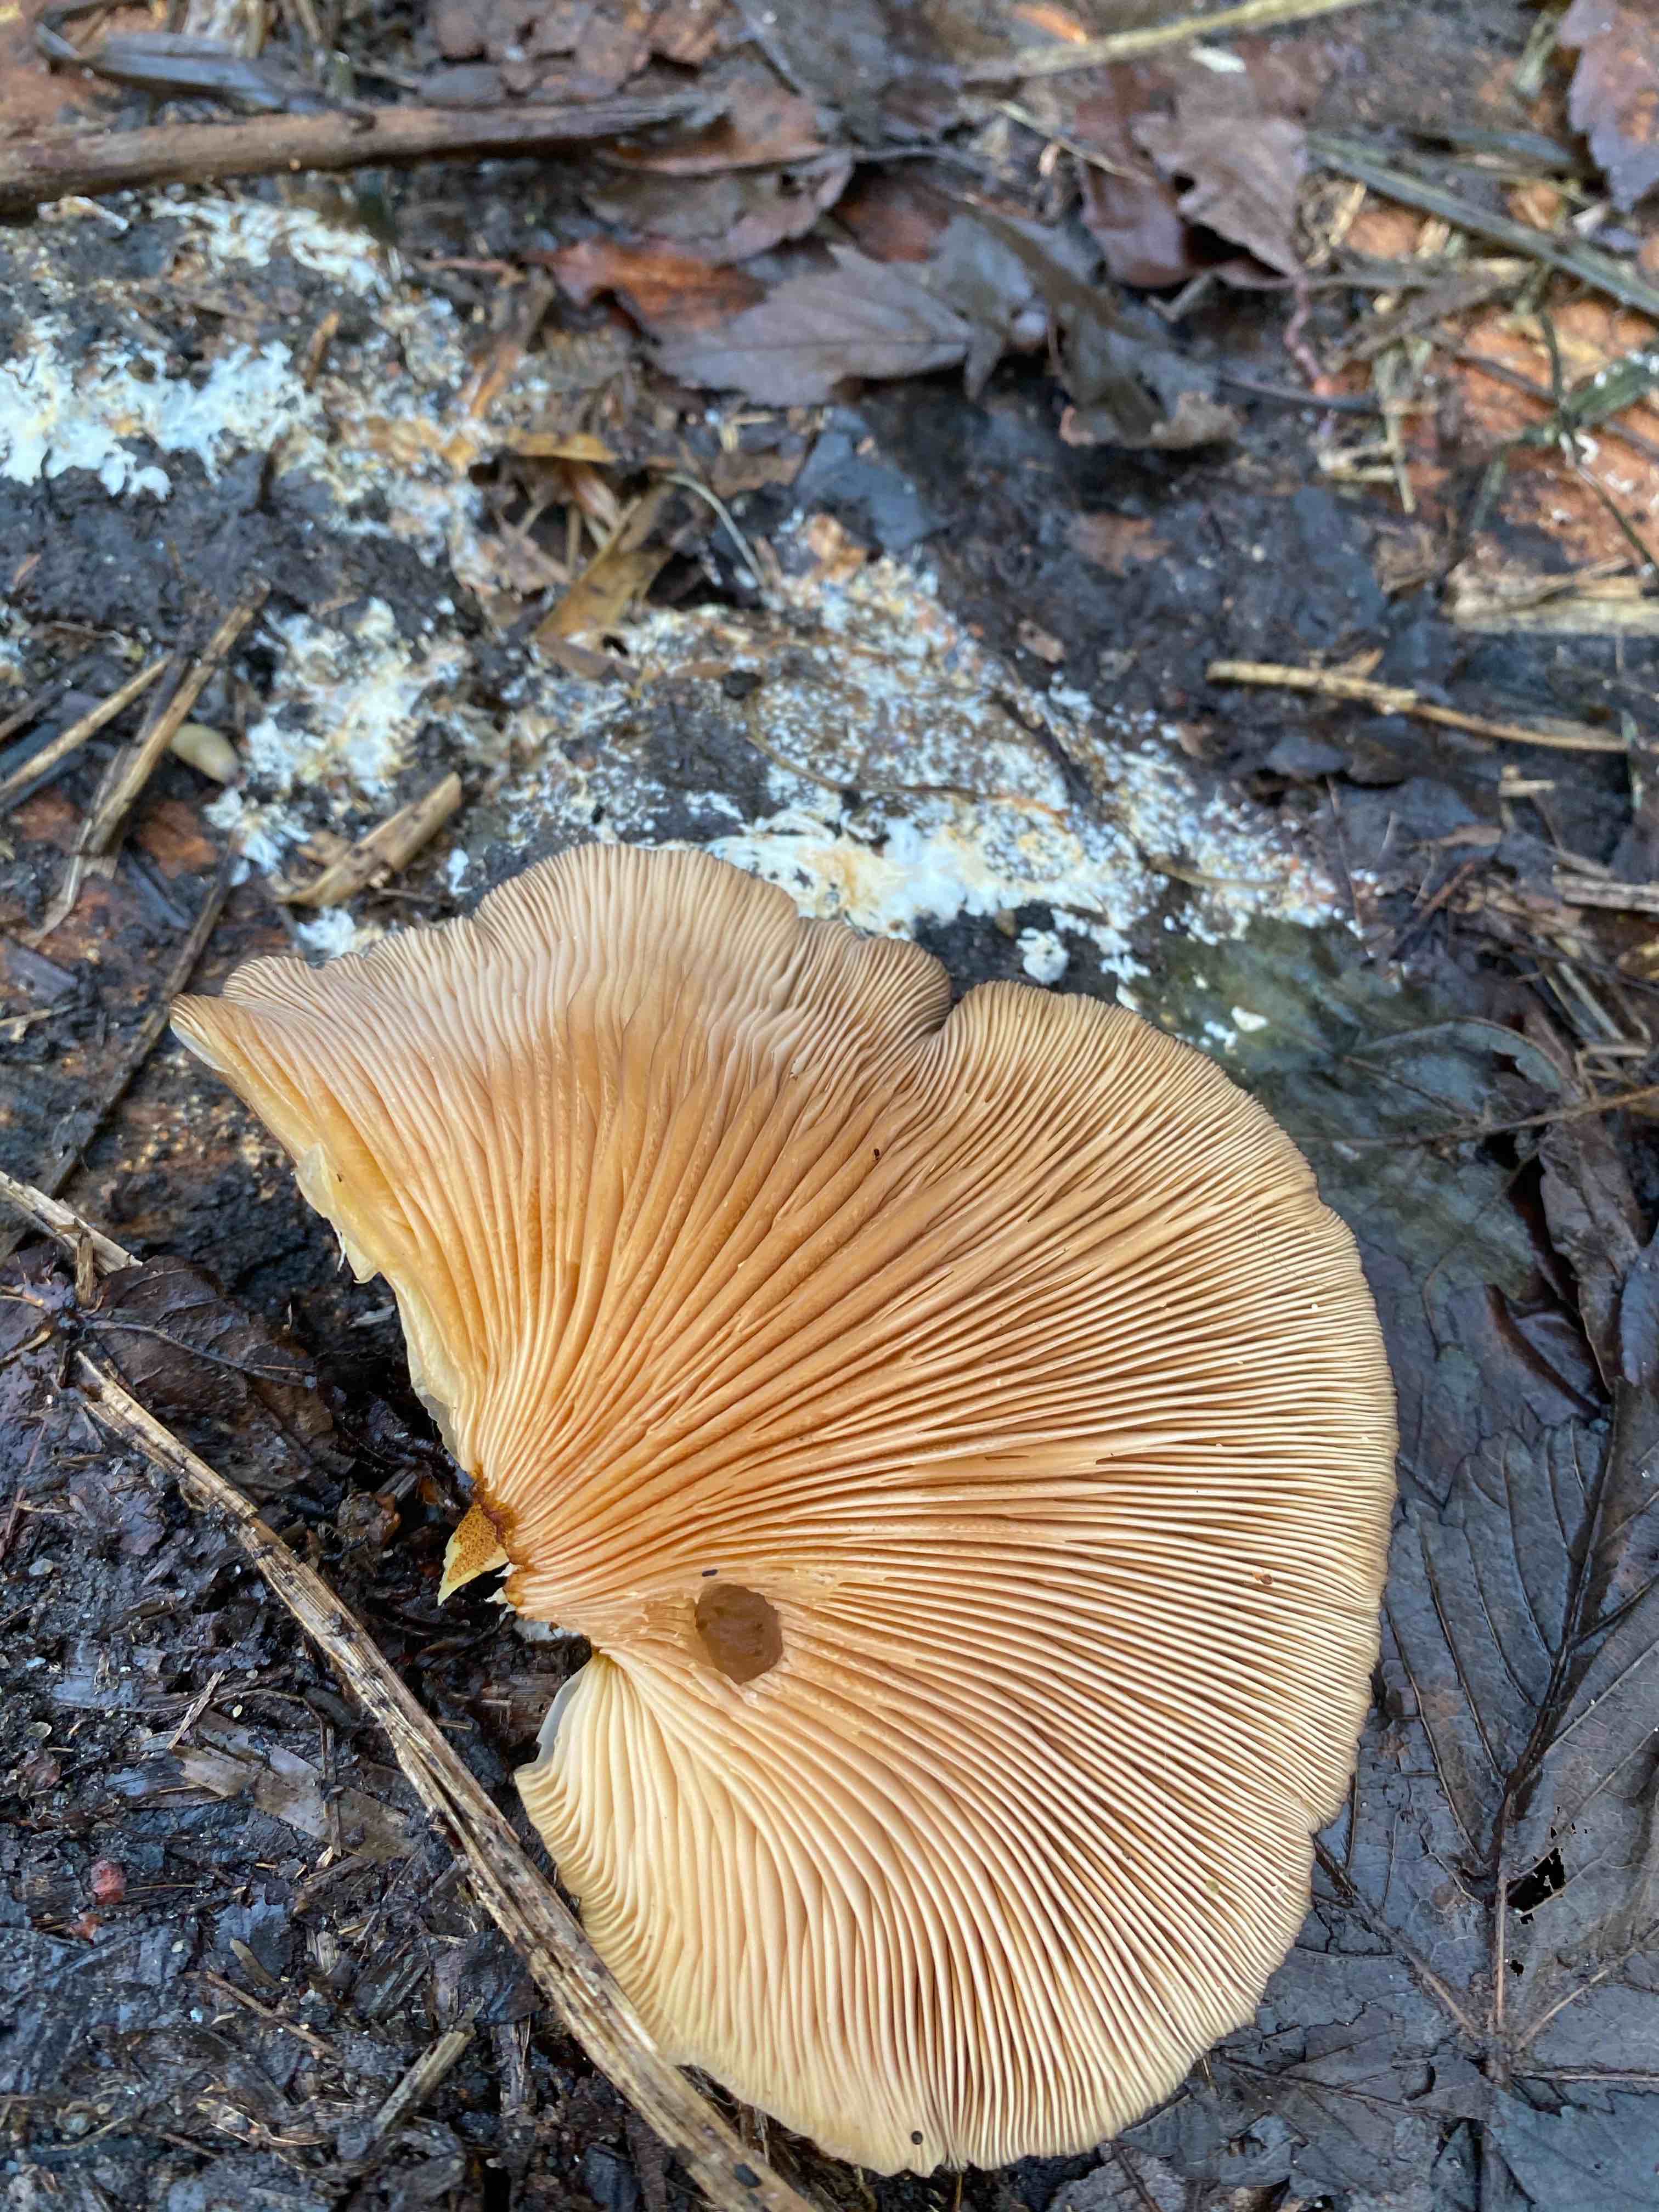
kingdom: Fungi
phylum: Basidiomycota
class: Agaricomycetes
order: Agaricales
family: Sarcomyxaceae
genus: Sarcomyxa
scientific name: Sarcomyxa serotina
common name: gummihat
